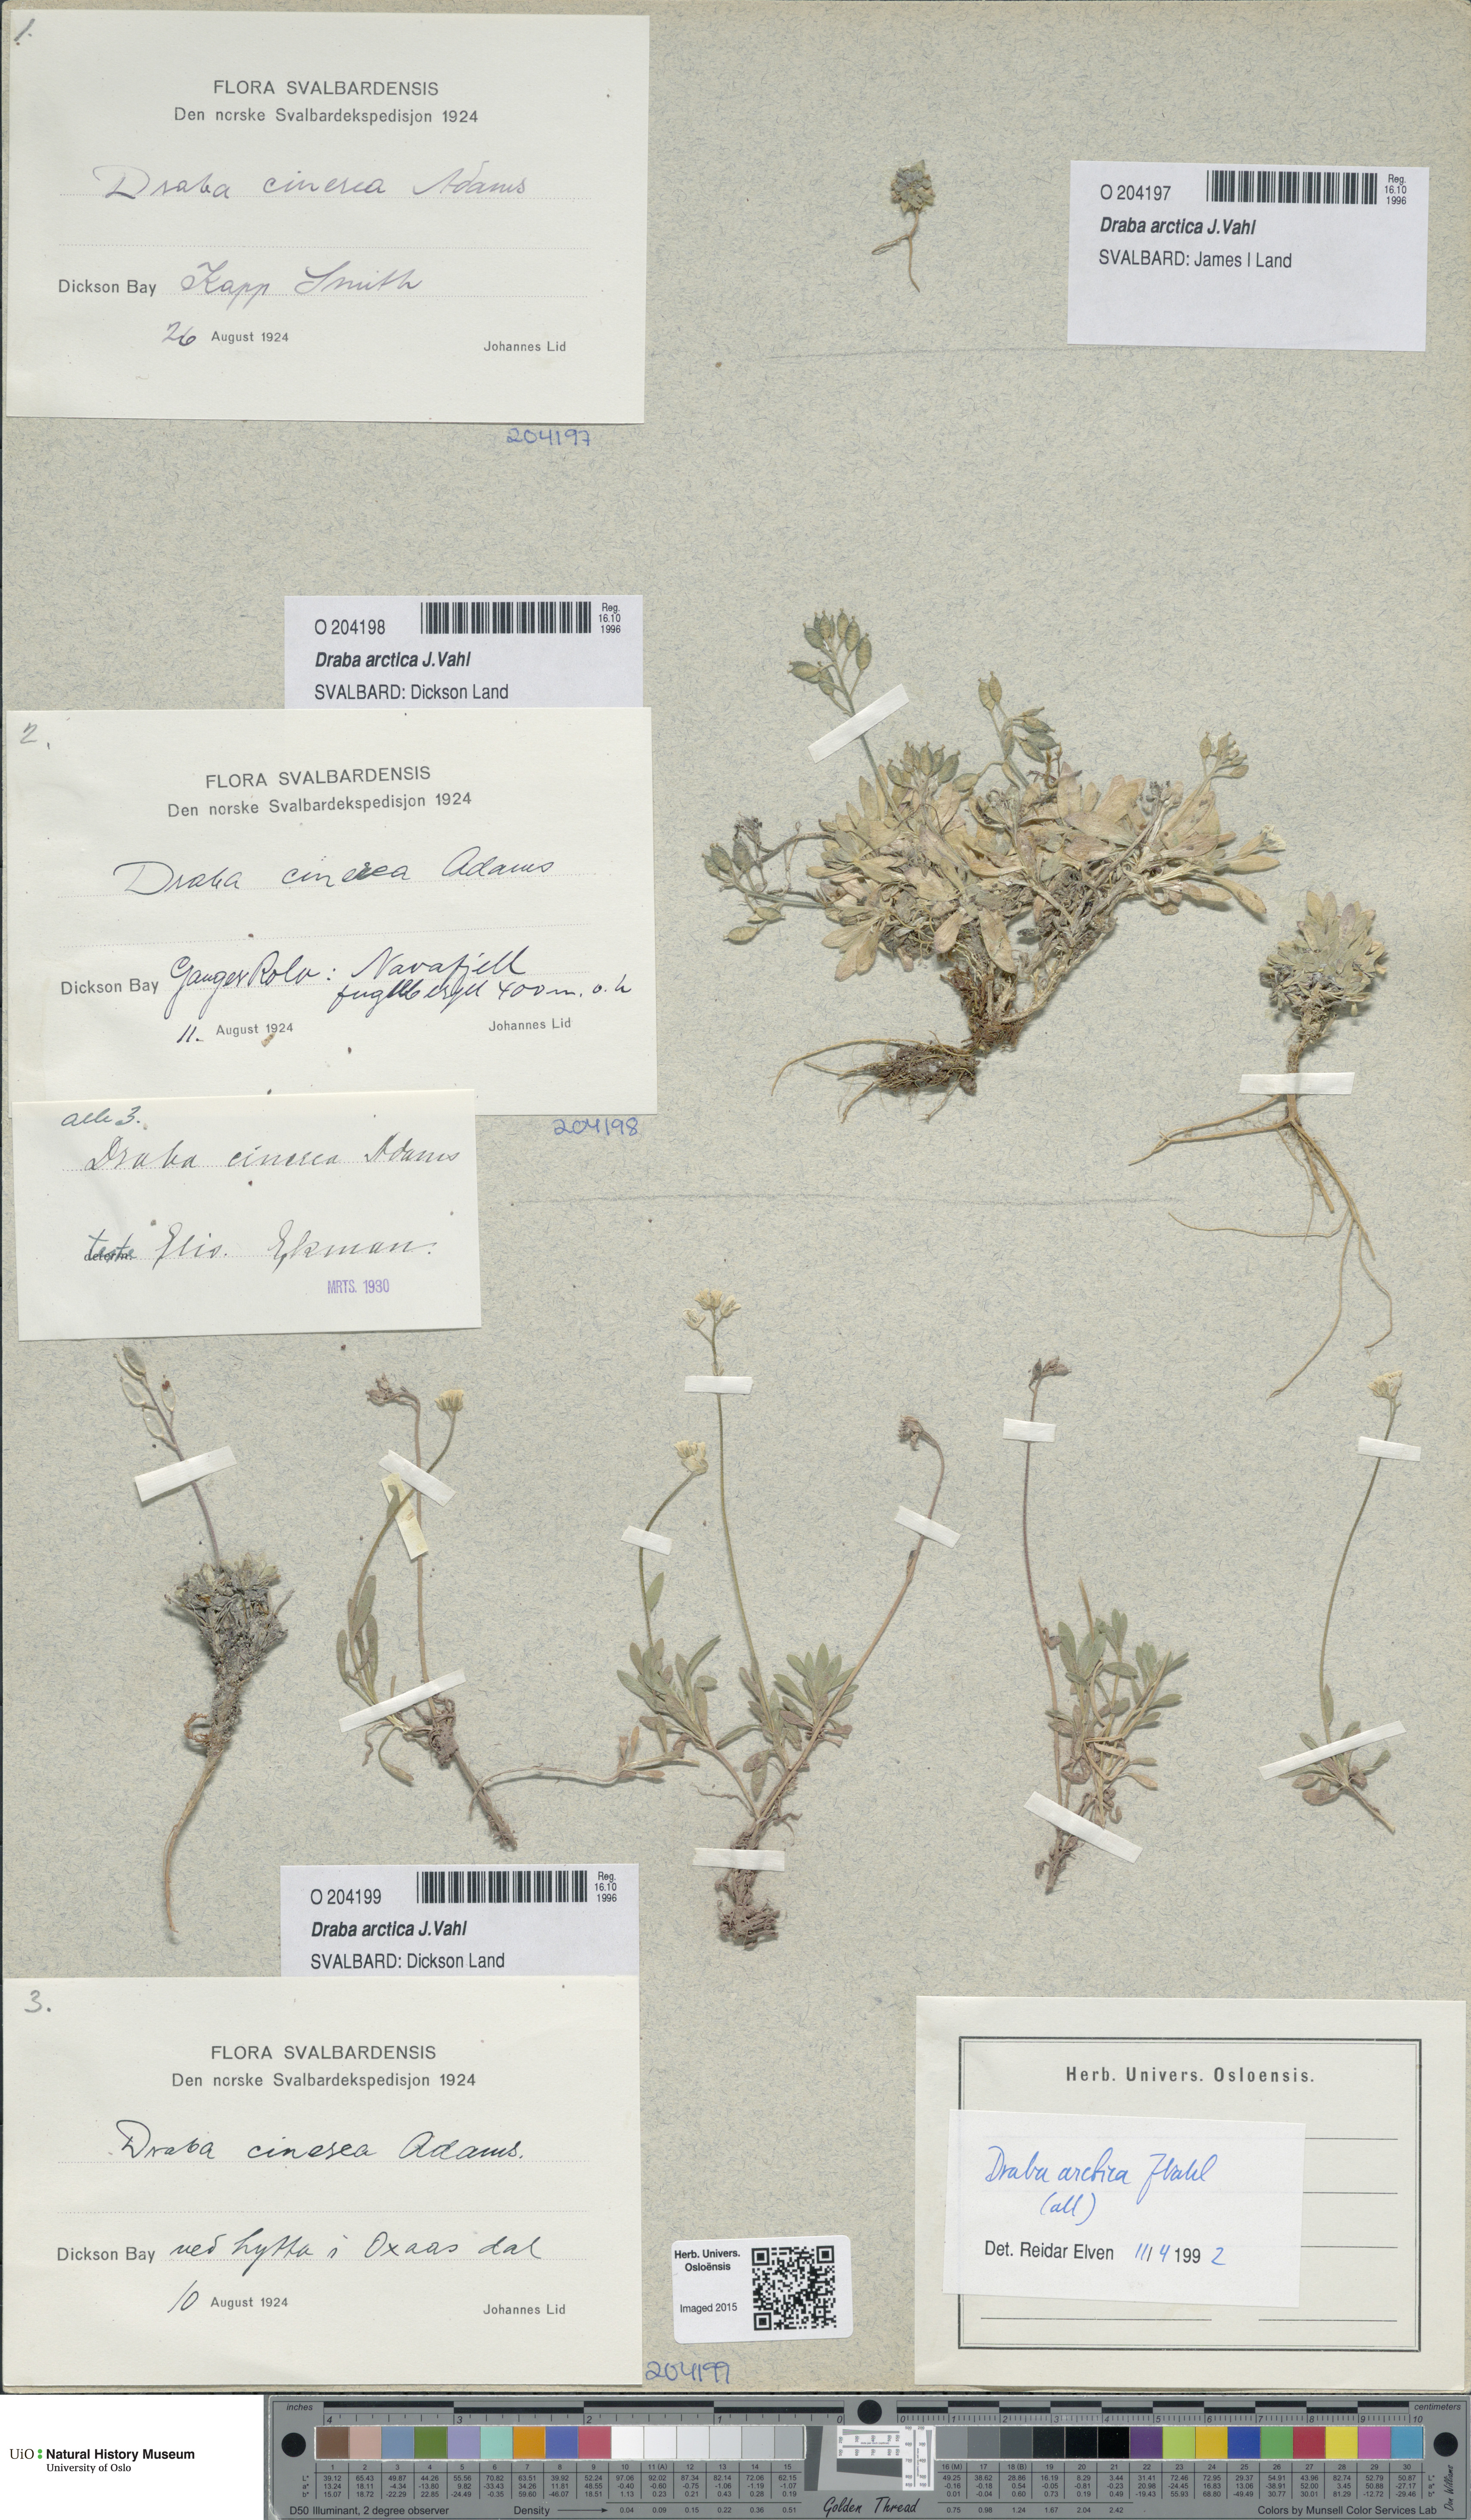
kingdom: Plantae
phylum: Tracheophyta
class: Magnoliopsida
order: Brassicales
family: Brassicaceae
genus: Draba
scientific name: Draba arctica
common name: Arctic draba
